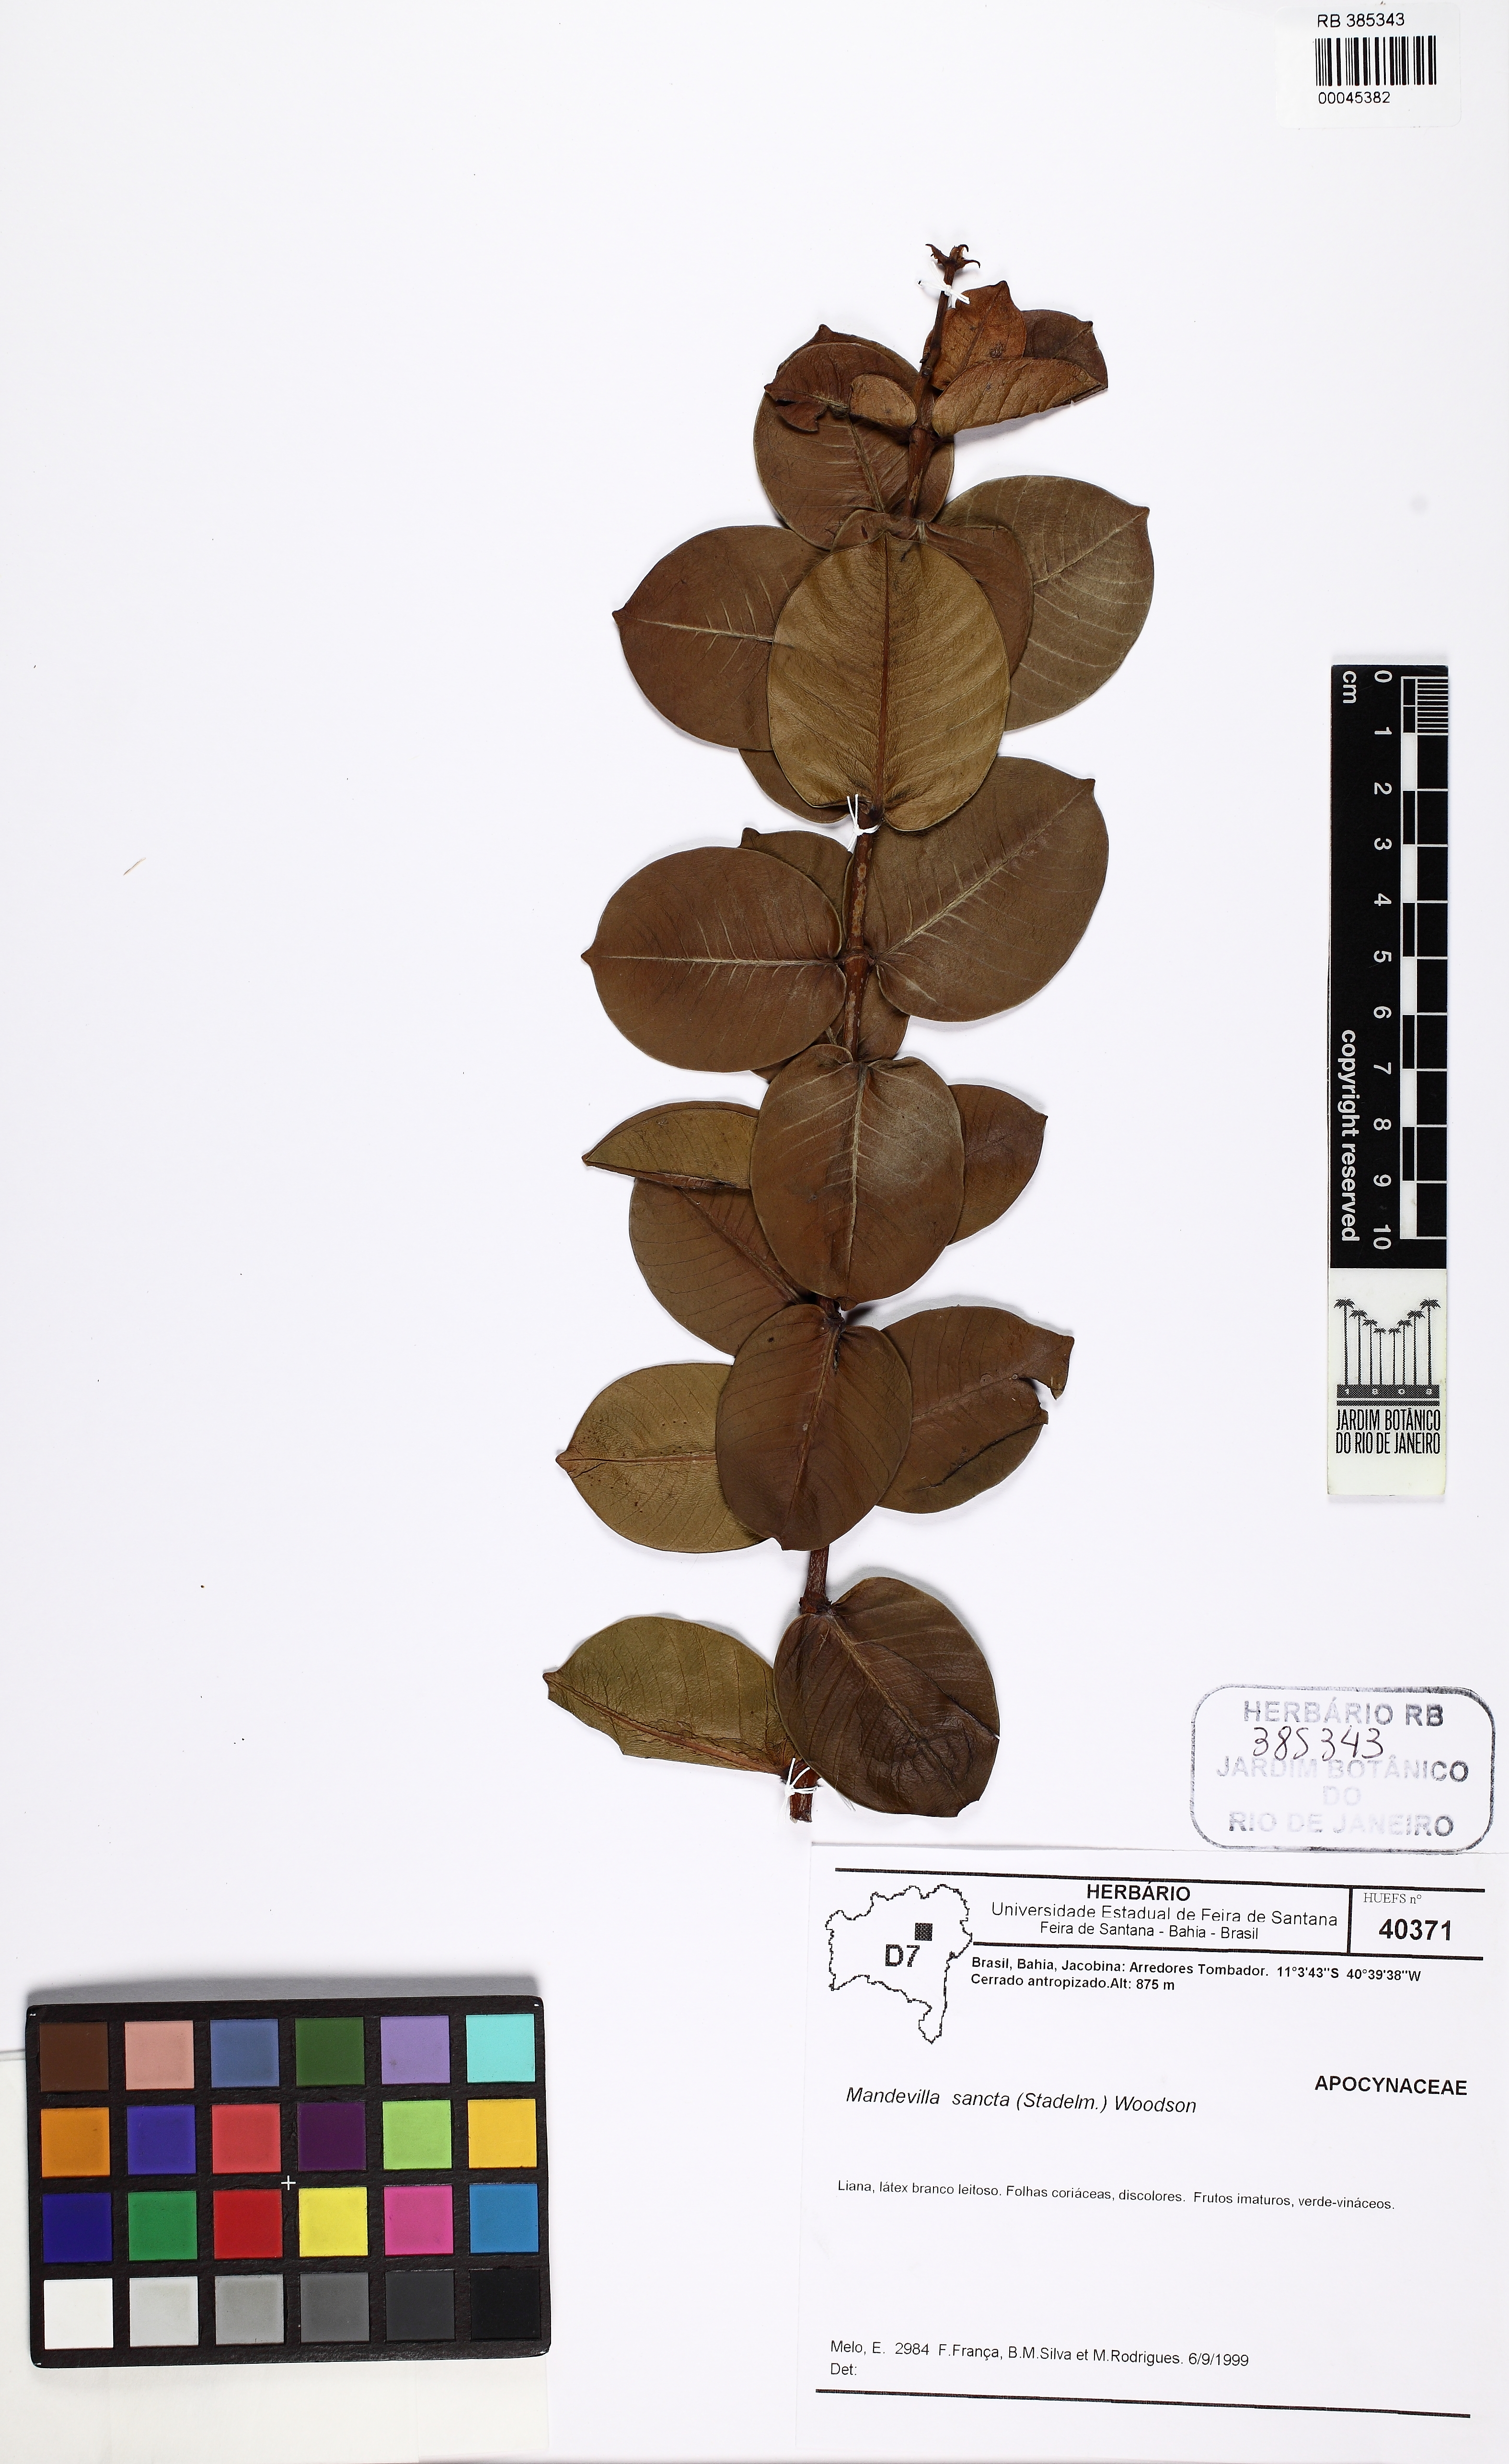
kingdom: Plantae
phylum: Tracheophyta
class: Magnoliopsida
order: Gentianales
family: Apocynaceae
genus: Mandevilla
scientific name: Mandevilla sancta
